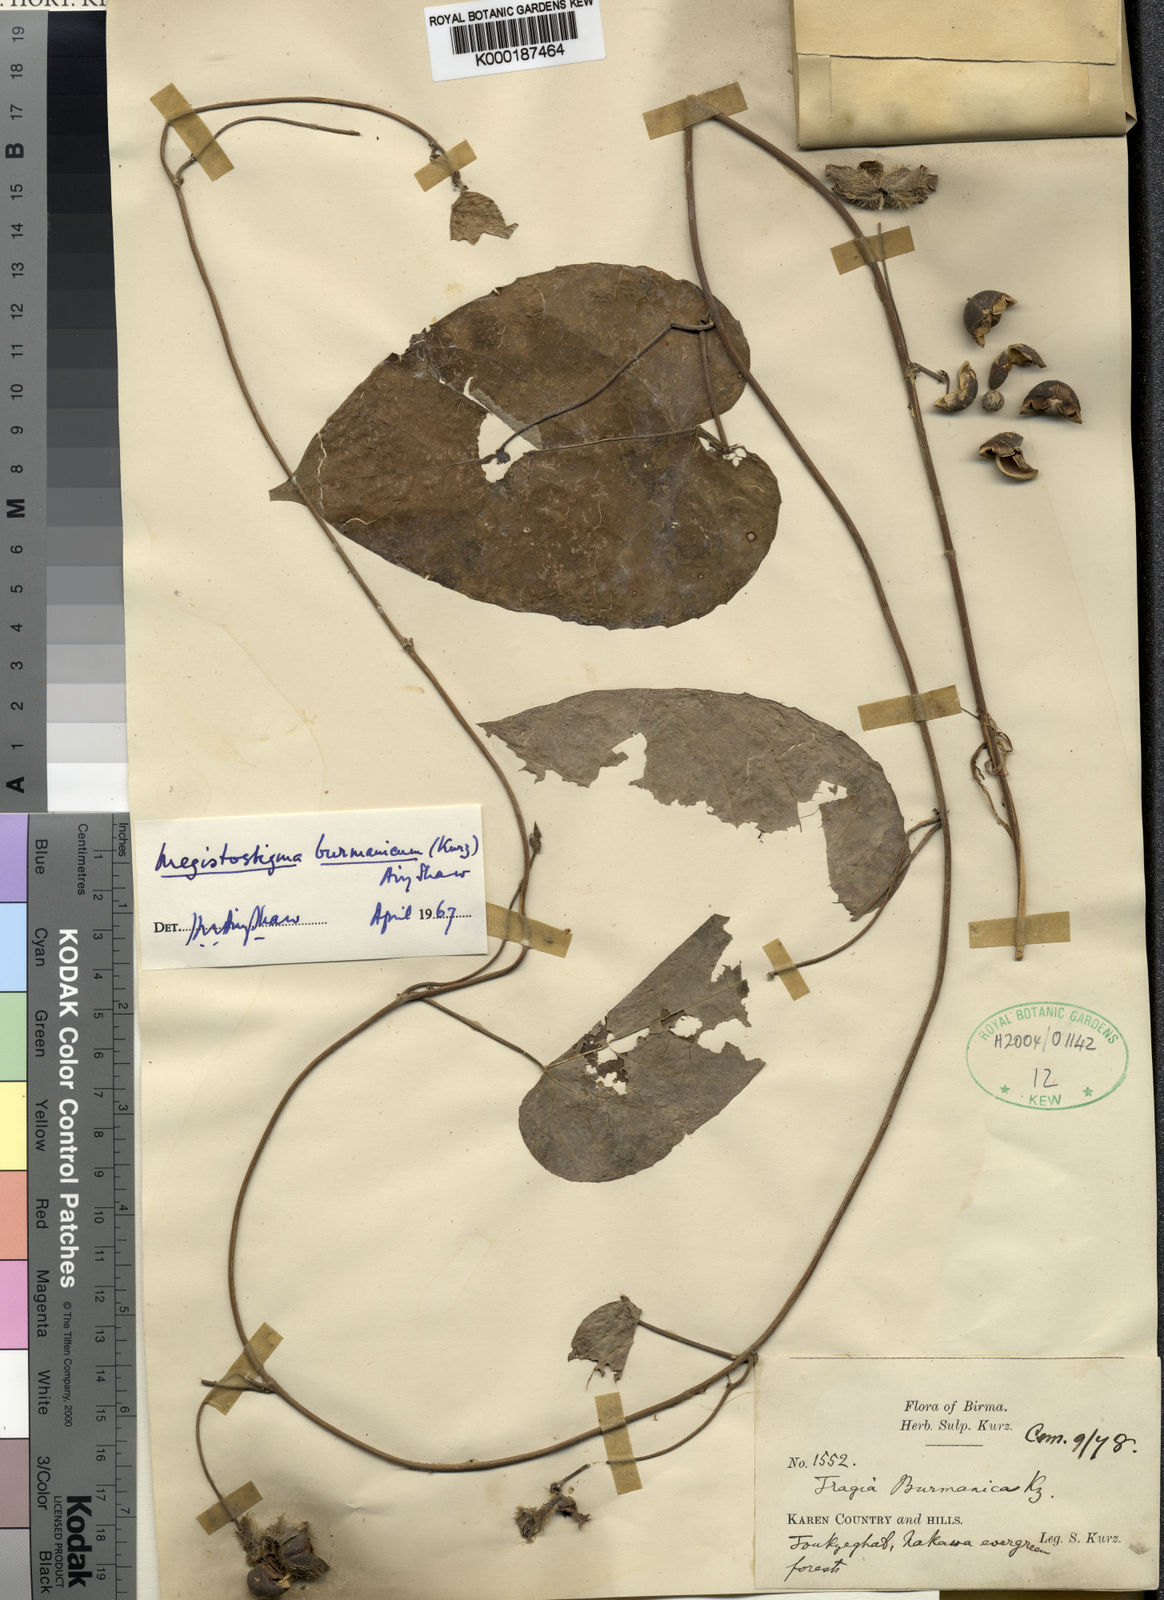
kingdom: Plantae
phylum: Tracheophyta
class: Magnoliopsida
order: Malpighiales
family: Euphorbiaceae
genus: Megistostigma
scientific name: Megistostigma burmanicum
